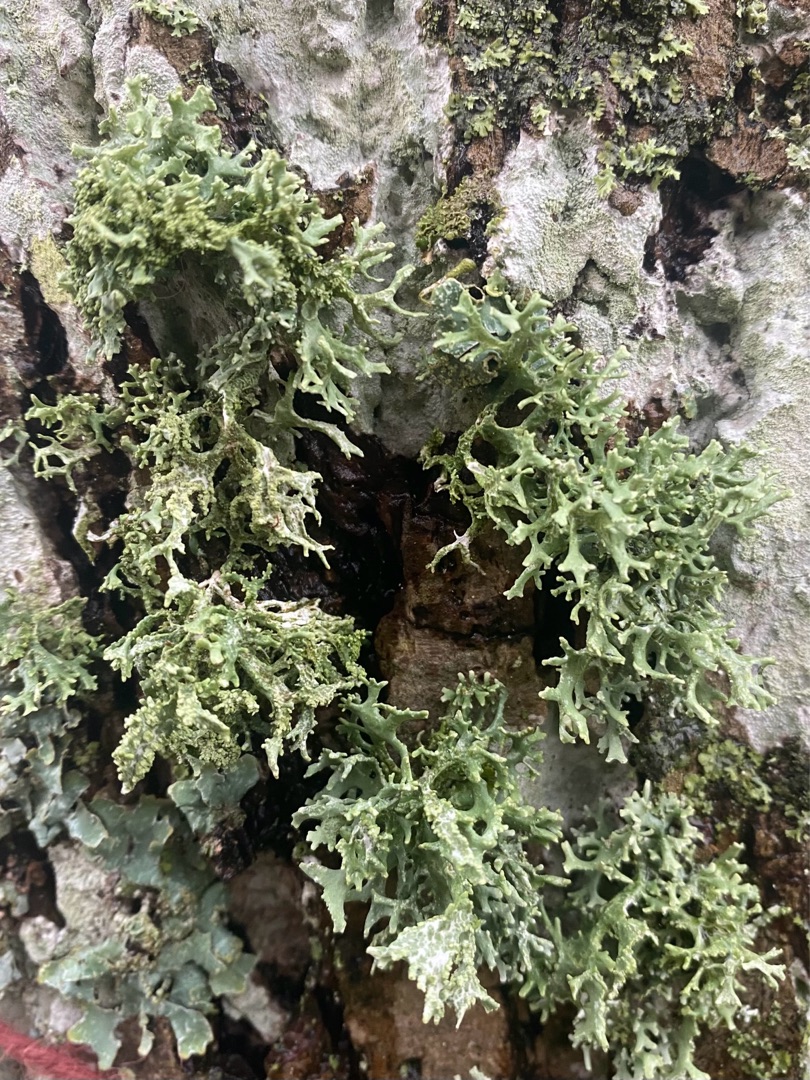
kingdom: Fungi
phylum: Ascomycota
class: Lecanoromycetes
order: Lecanorales
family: Parmeliaceae
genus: Evernia
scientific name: Evernia prunastri
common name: Almindelig slåenlav
